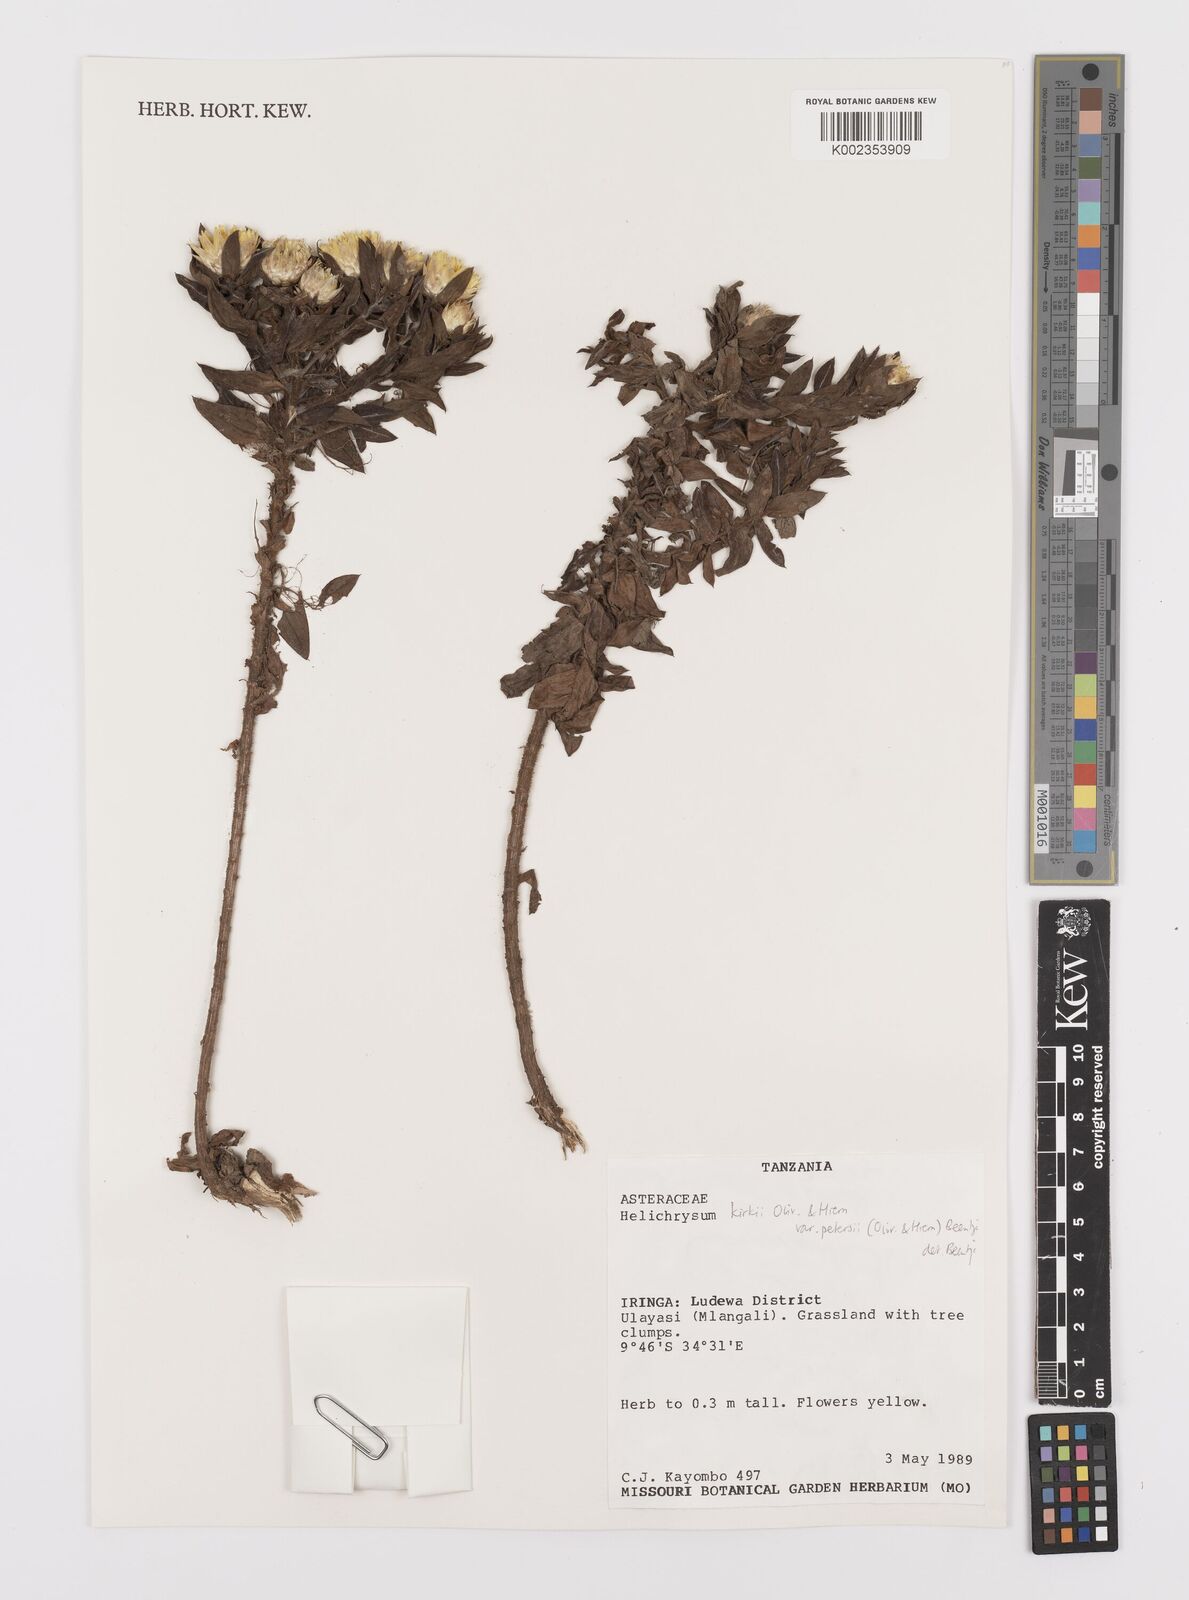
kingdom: Plantae
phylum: Tracheophyta
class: Magnoliopsida
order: Asterales
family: Asteraceae
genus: Helichrysum
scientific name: Helichrysum kirkii
